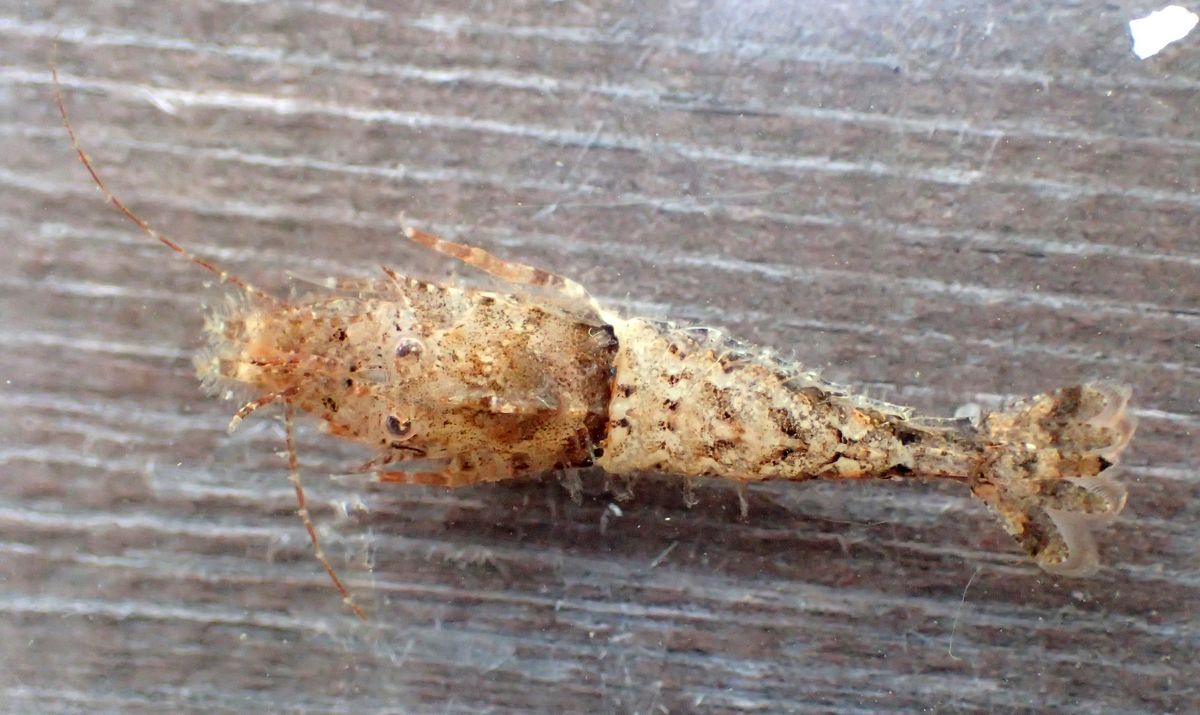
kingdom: Animalia
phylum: Arthropoda
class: Malacostraca
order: Decapoda
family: Crangonidae
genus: Sclerocrangon
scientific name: Sclerocrangon boreas
